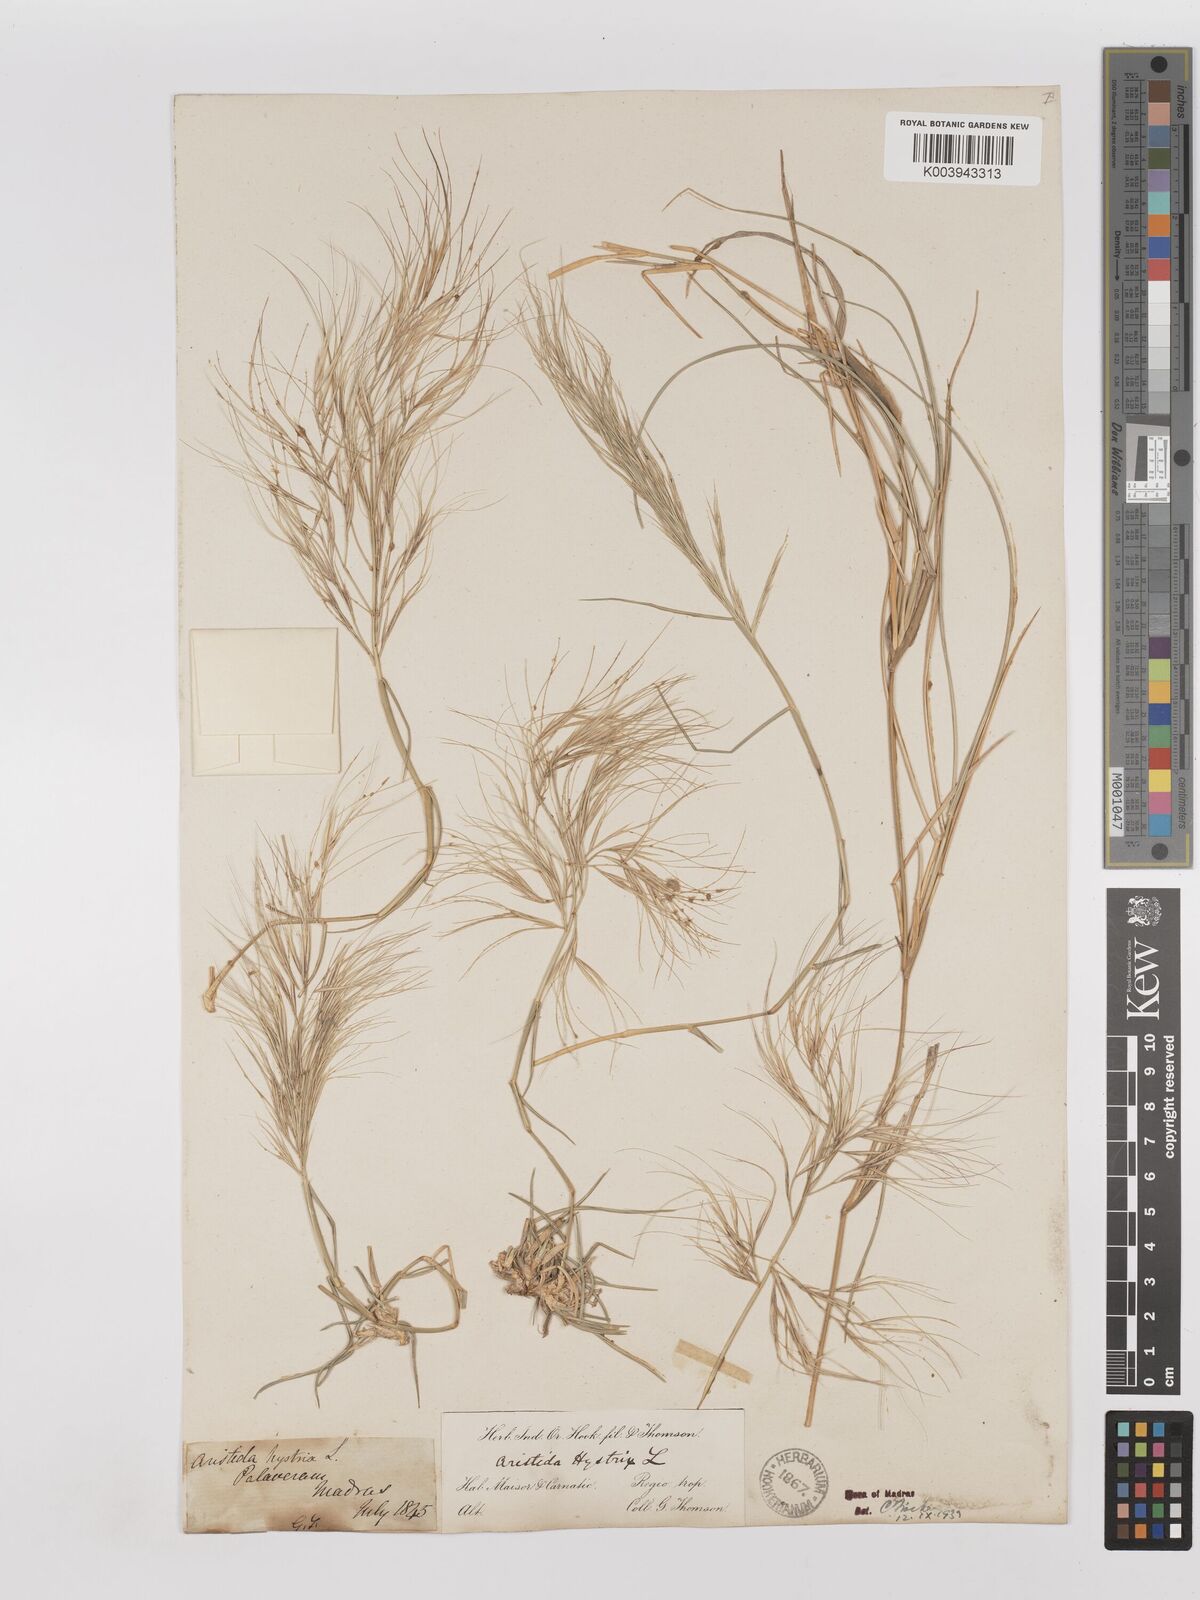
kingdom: Plantae
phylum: Tracheophyta
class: Liliopsida
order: Poales
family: Poaceae
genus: Aristida
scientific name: Aristida hystrix
